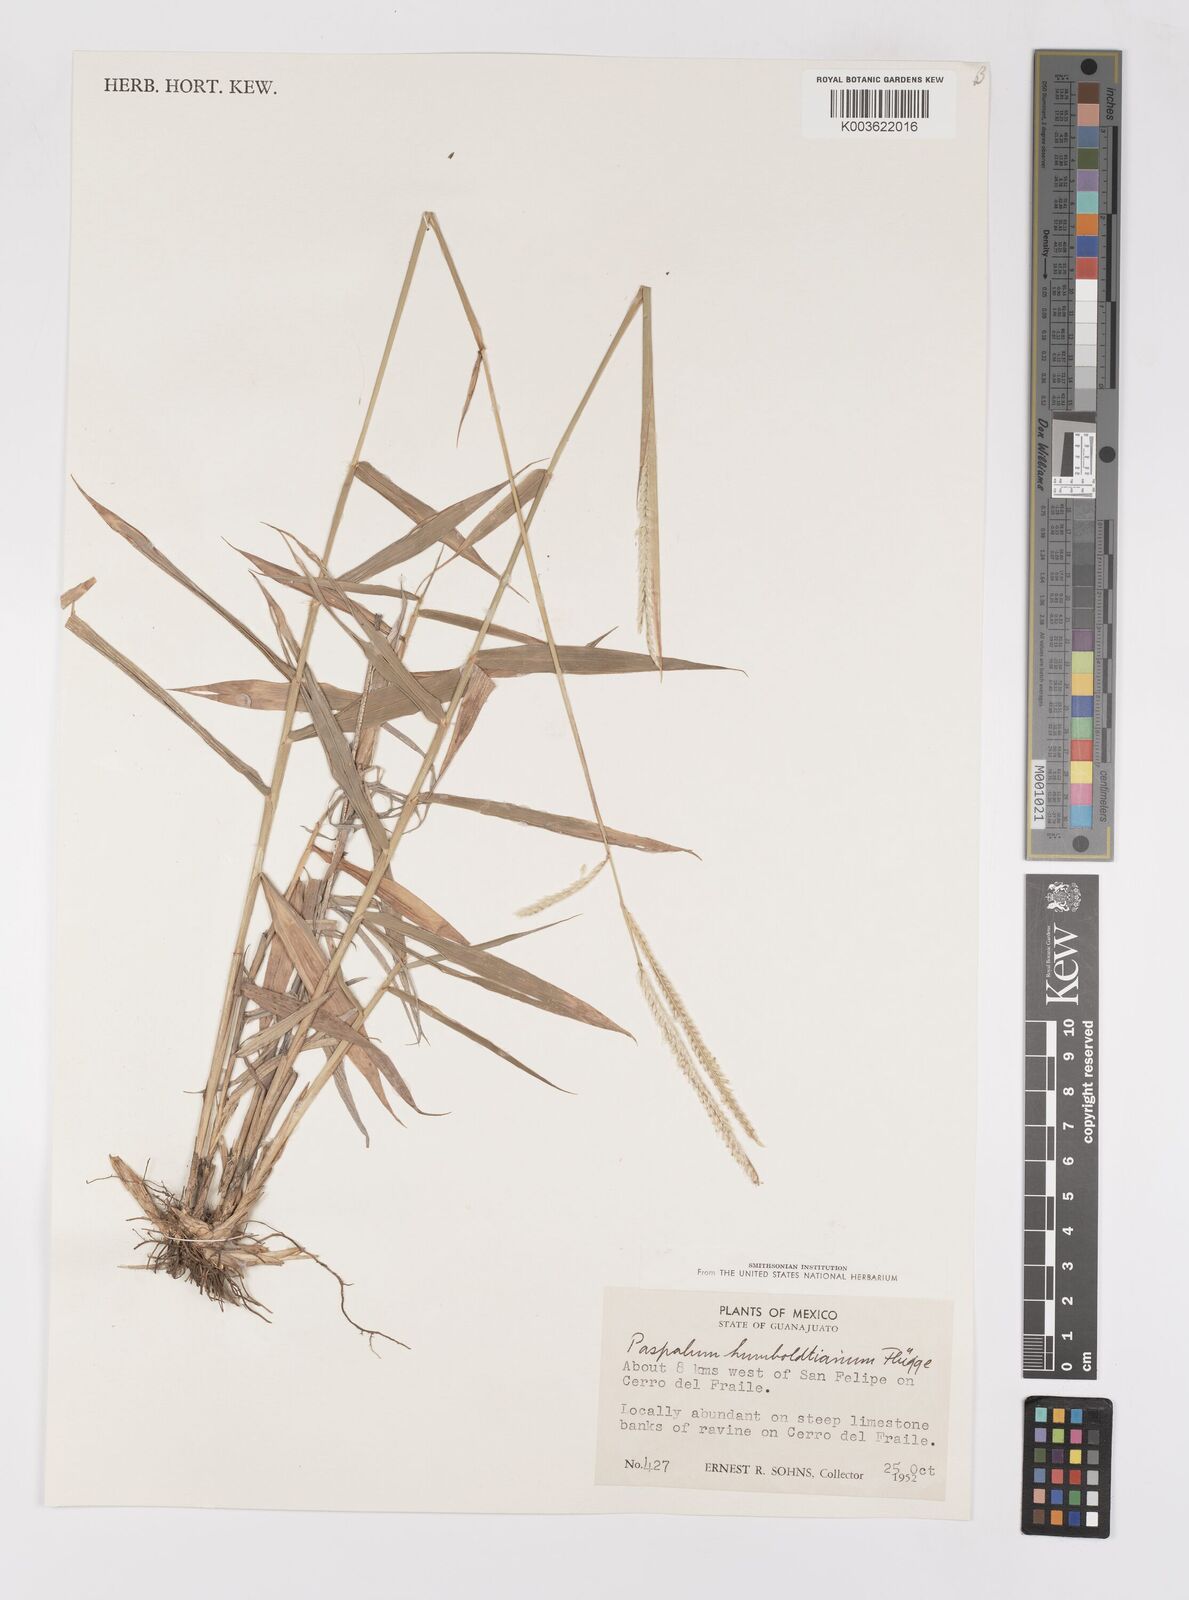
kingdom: Plantae
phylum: Tracheophyta
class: Liliopsida
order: Poales
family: Poaceae
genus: Paspalum
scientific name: Paspalum humboldtianum
